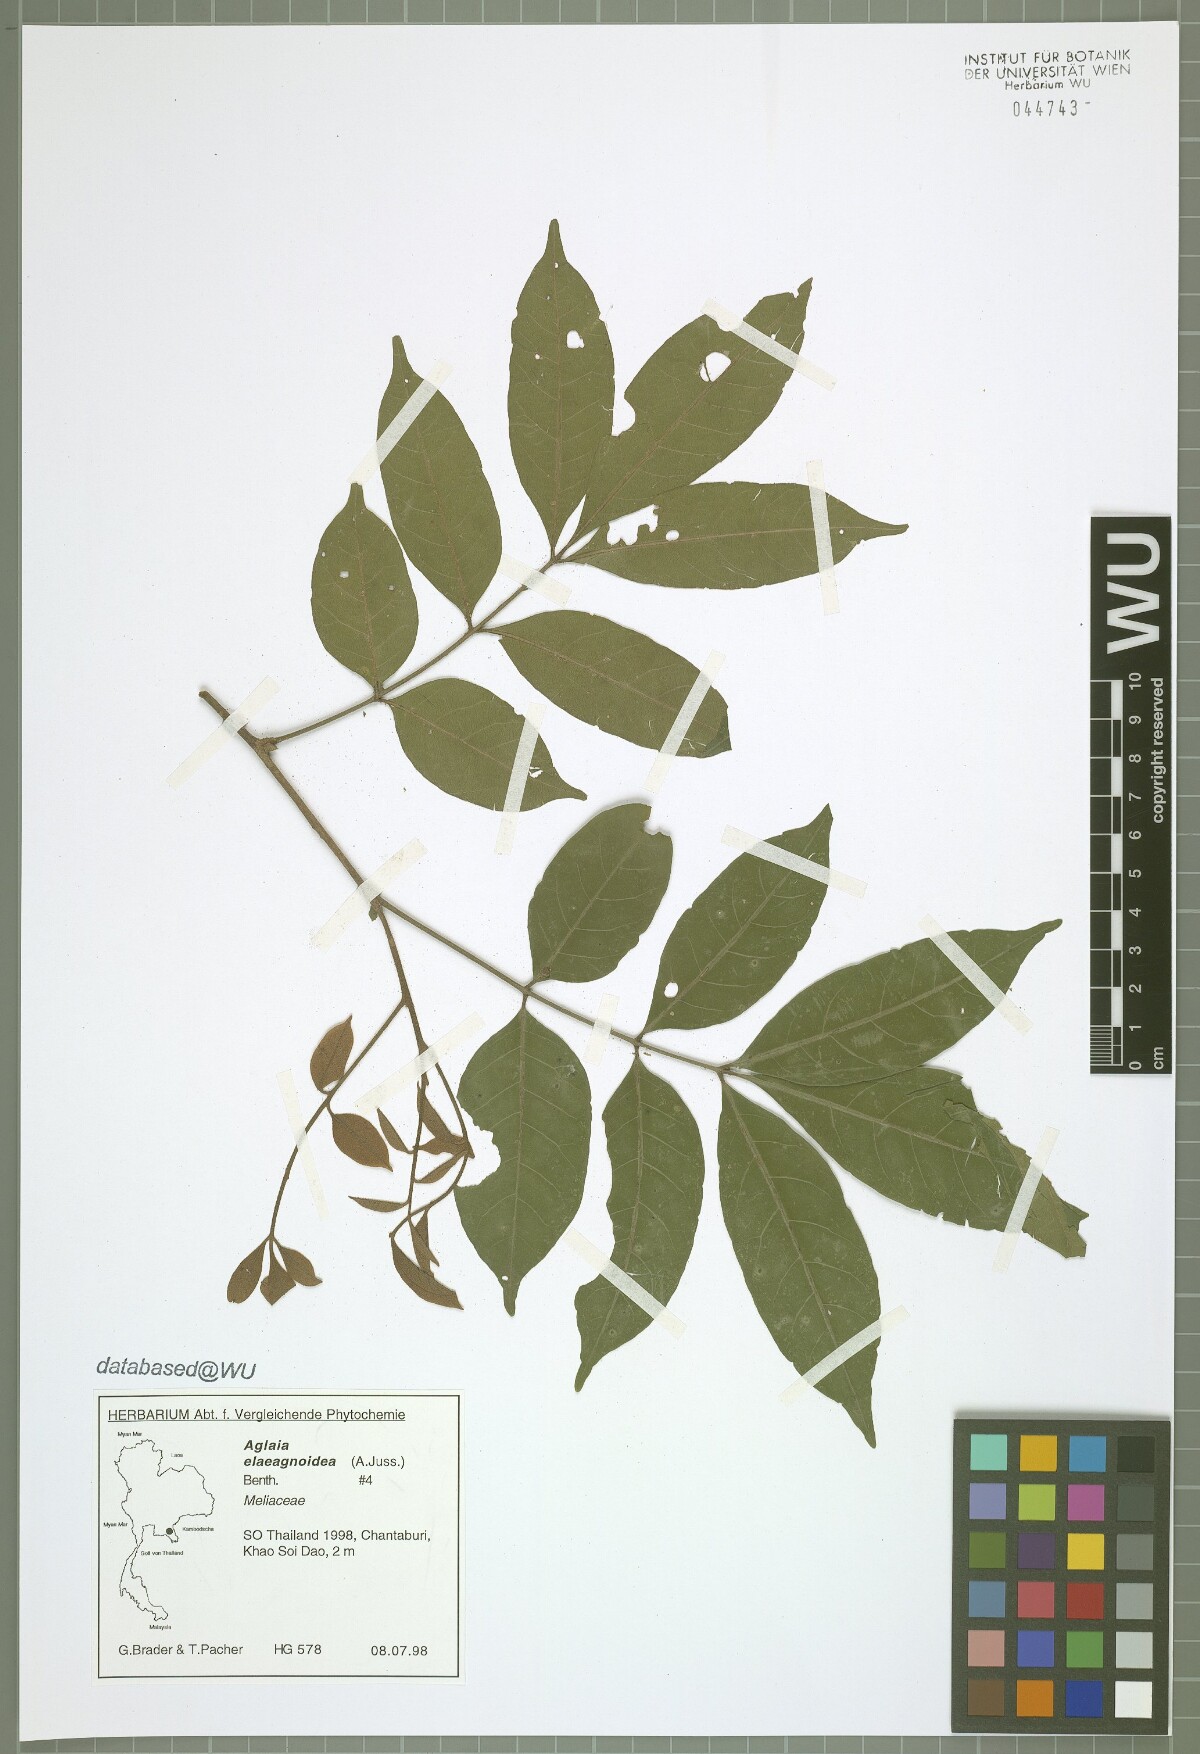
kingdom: Plantae
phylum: Tracheophyta
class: Magnoliopsida
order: Sapindales
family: Meliaceae
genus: Aglaia
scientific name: Aglaia elaeagnoidea
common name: Droopyleaf
